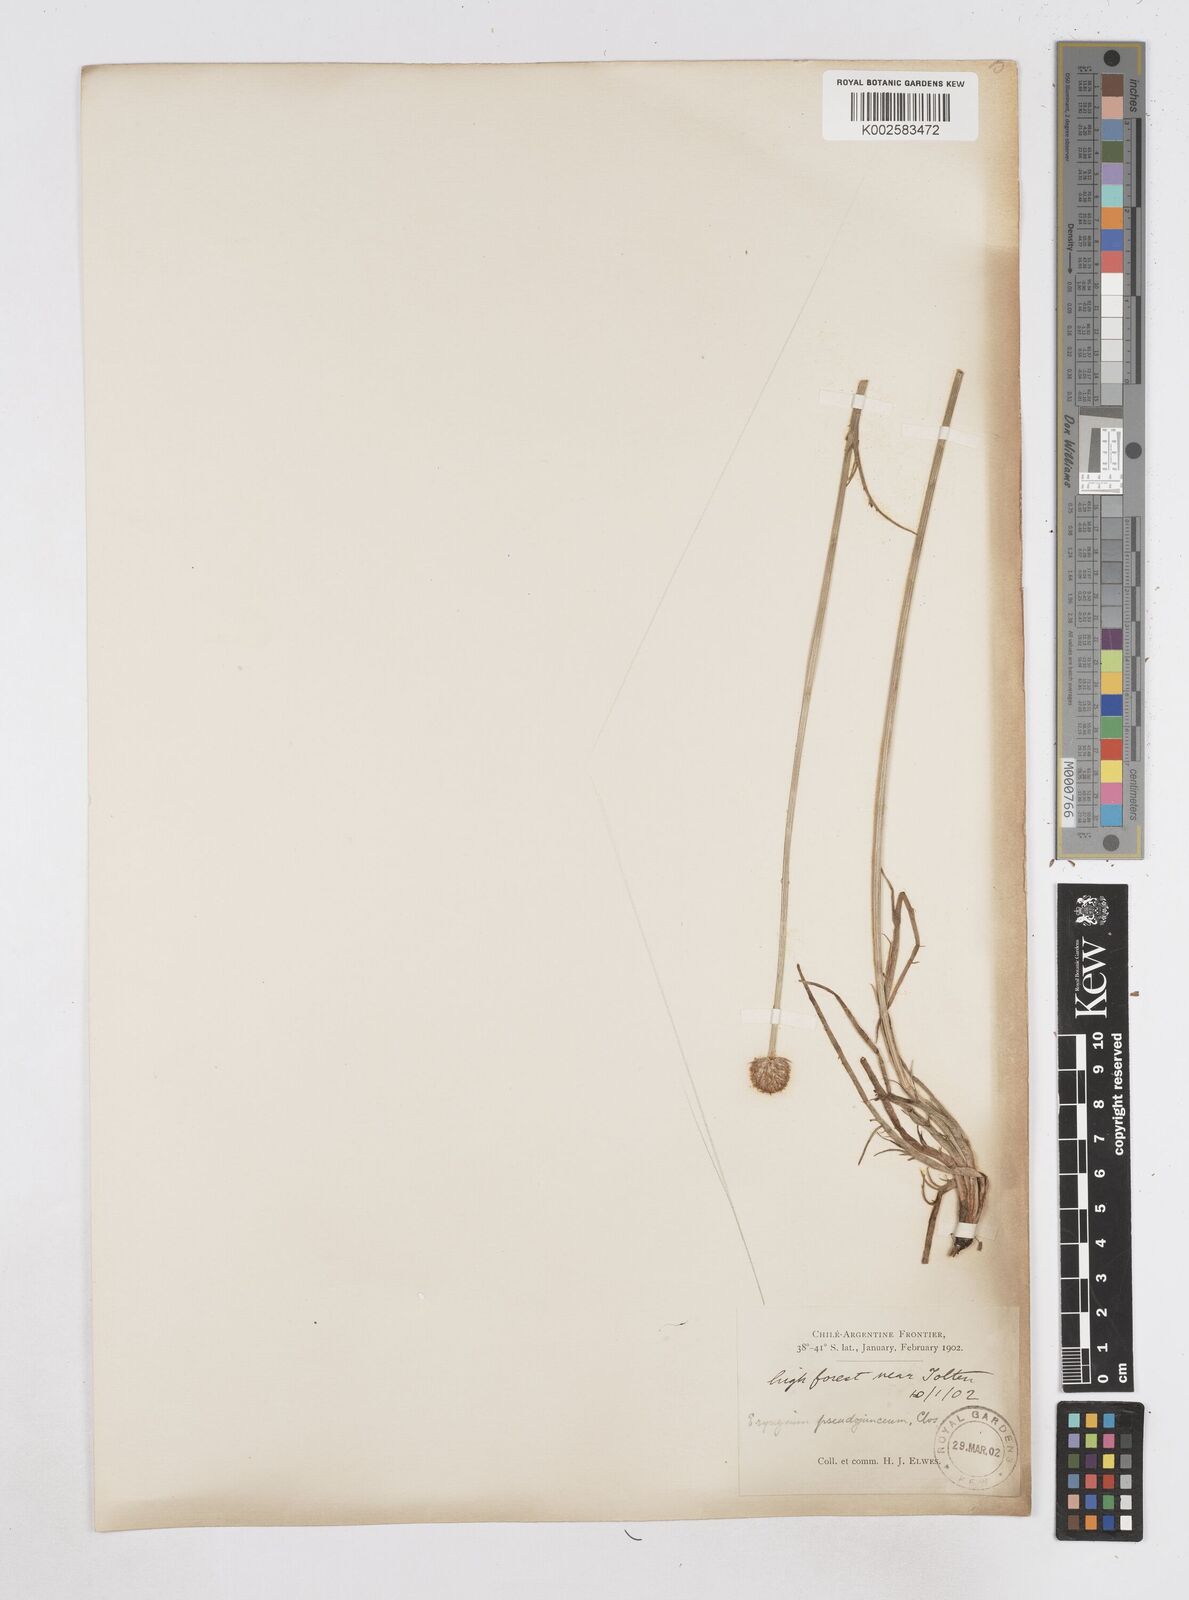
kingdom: Plantae
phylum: Tracheophyta
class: Magnoliopsida
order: Apiales
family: Apiaceae
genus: Eryngium
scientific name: Eryngium pseudojunceum
